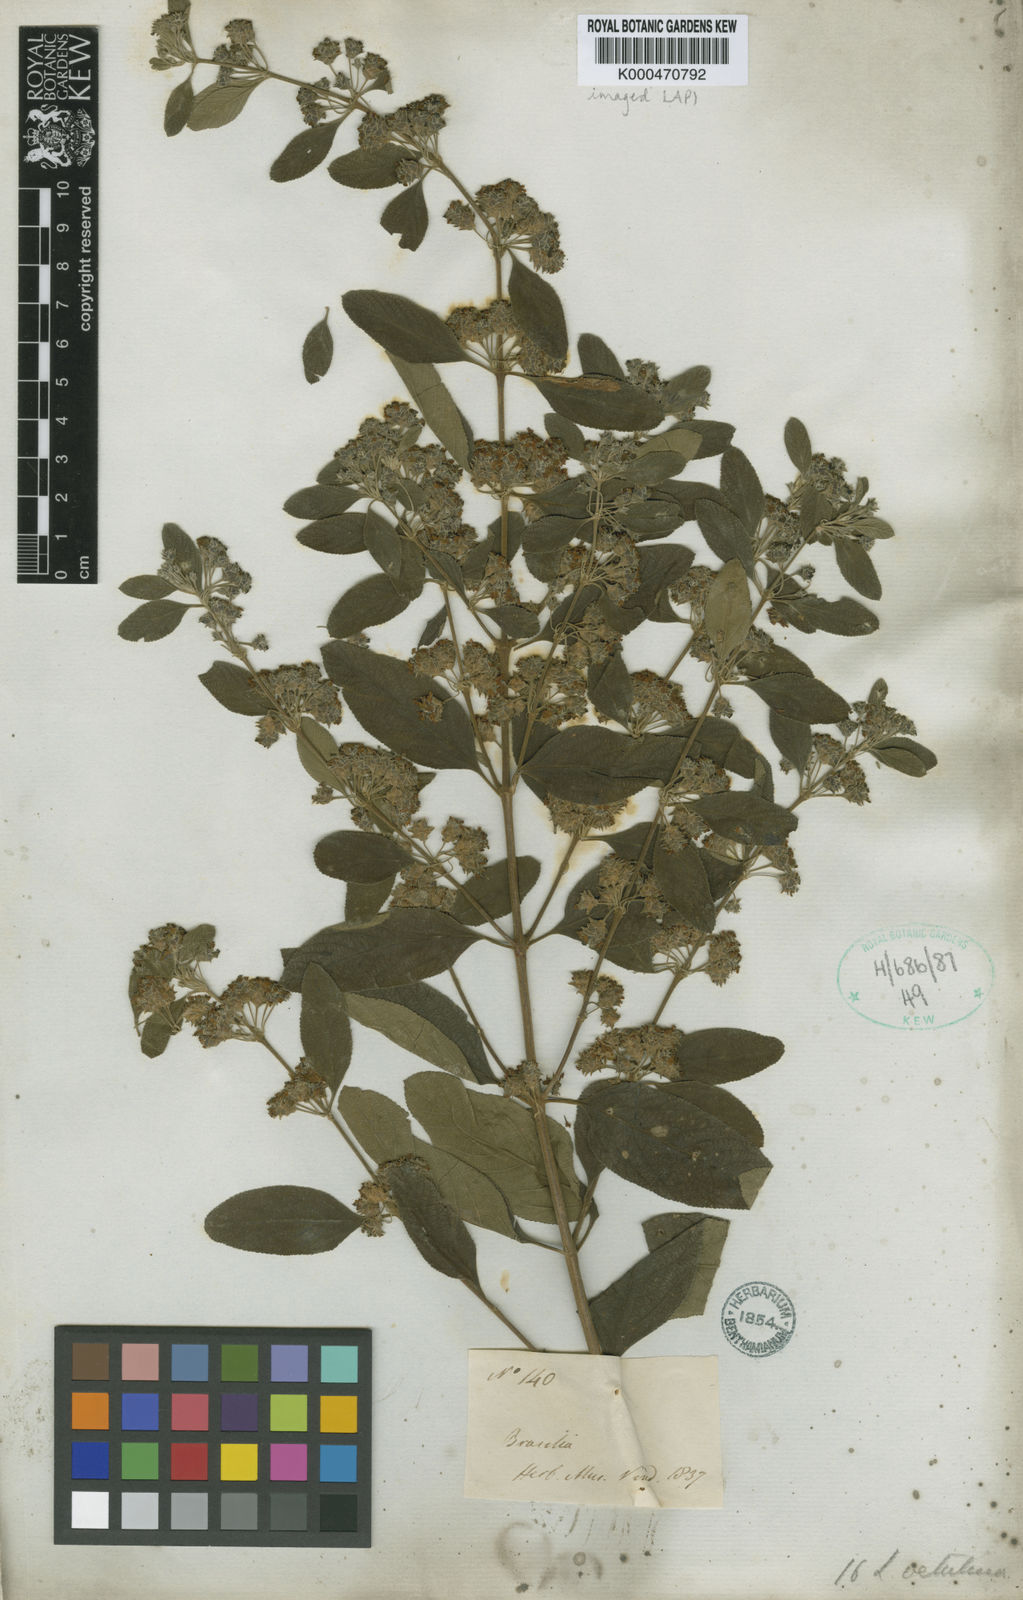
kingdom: Plantae
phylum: Tracheophyta
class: Magnoliopsida
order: Lamiales
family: Verbenaceae
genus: Lippia
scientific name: Lippia origanoides
